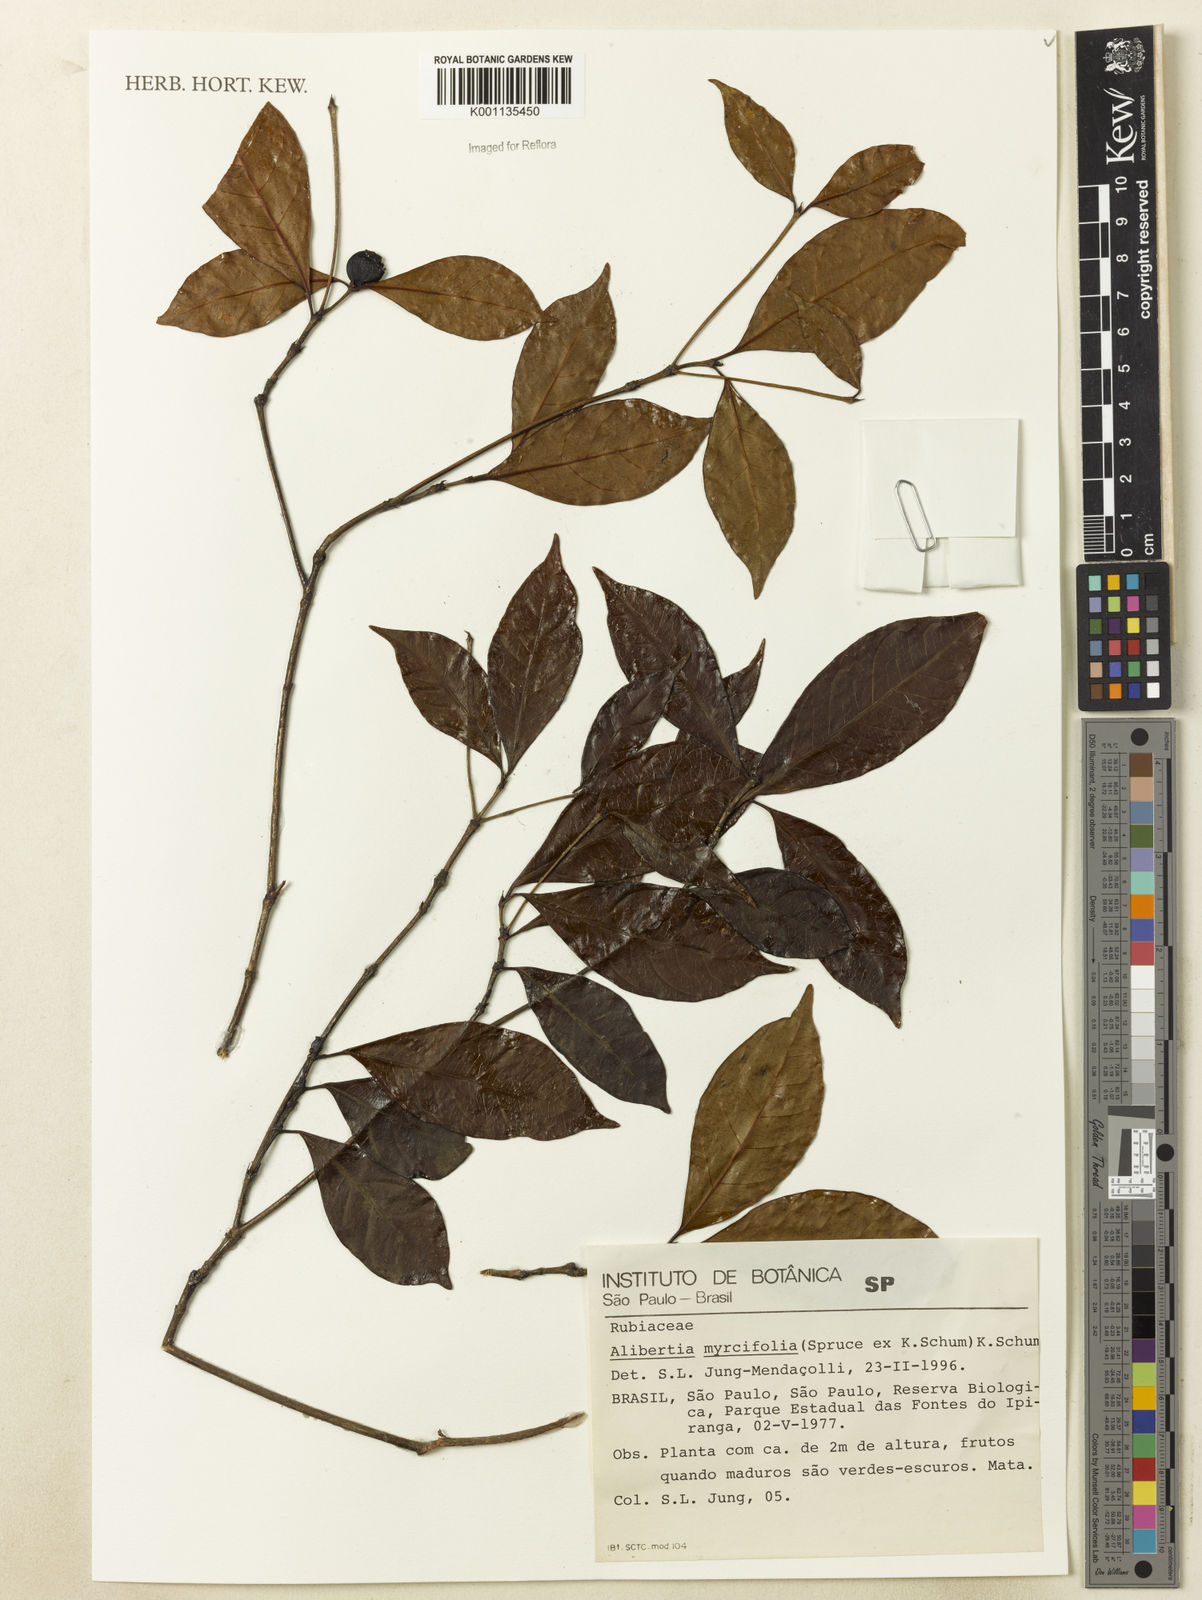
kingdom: Plantae
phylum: Tracheophyta
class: Magnoliopsida
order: Gentianales
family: Rubiaceae
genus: Cordiera
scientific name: Cordiera myrciifolia
